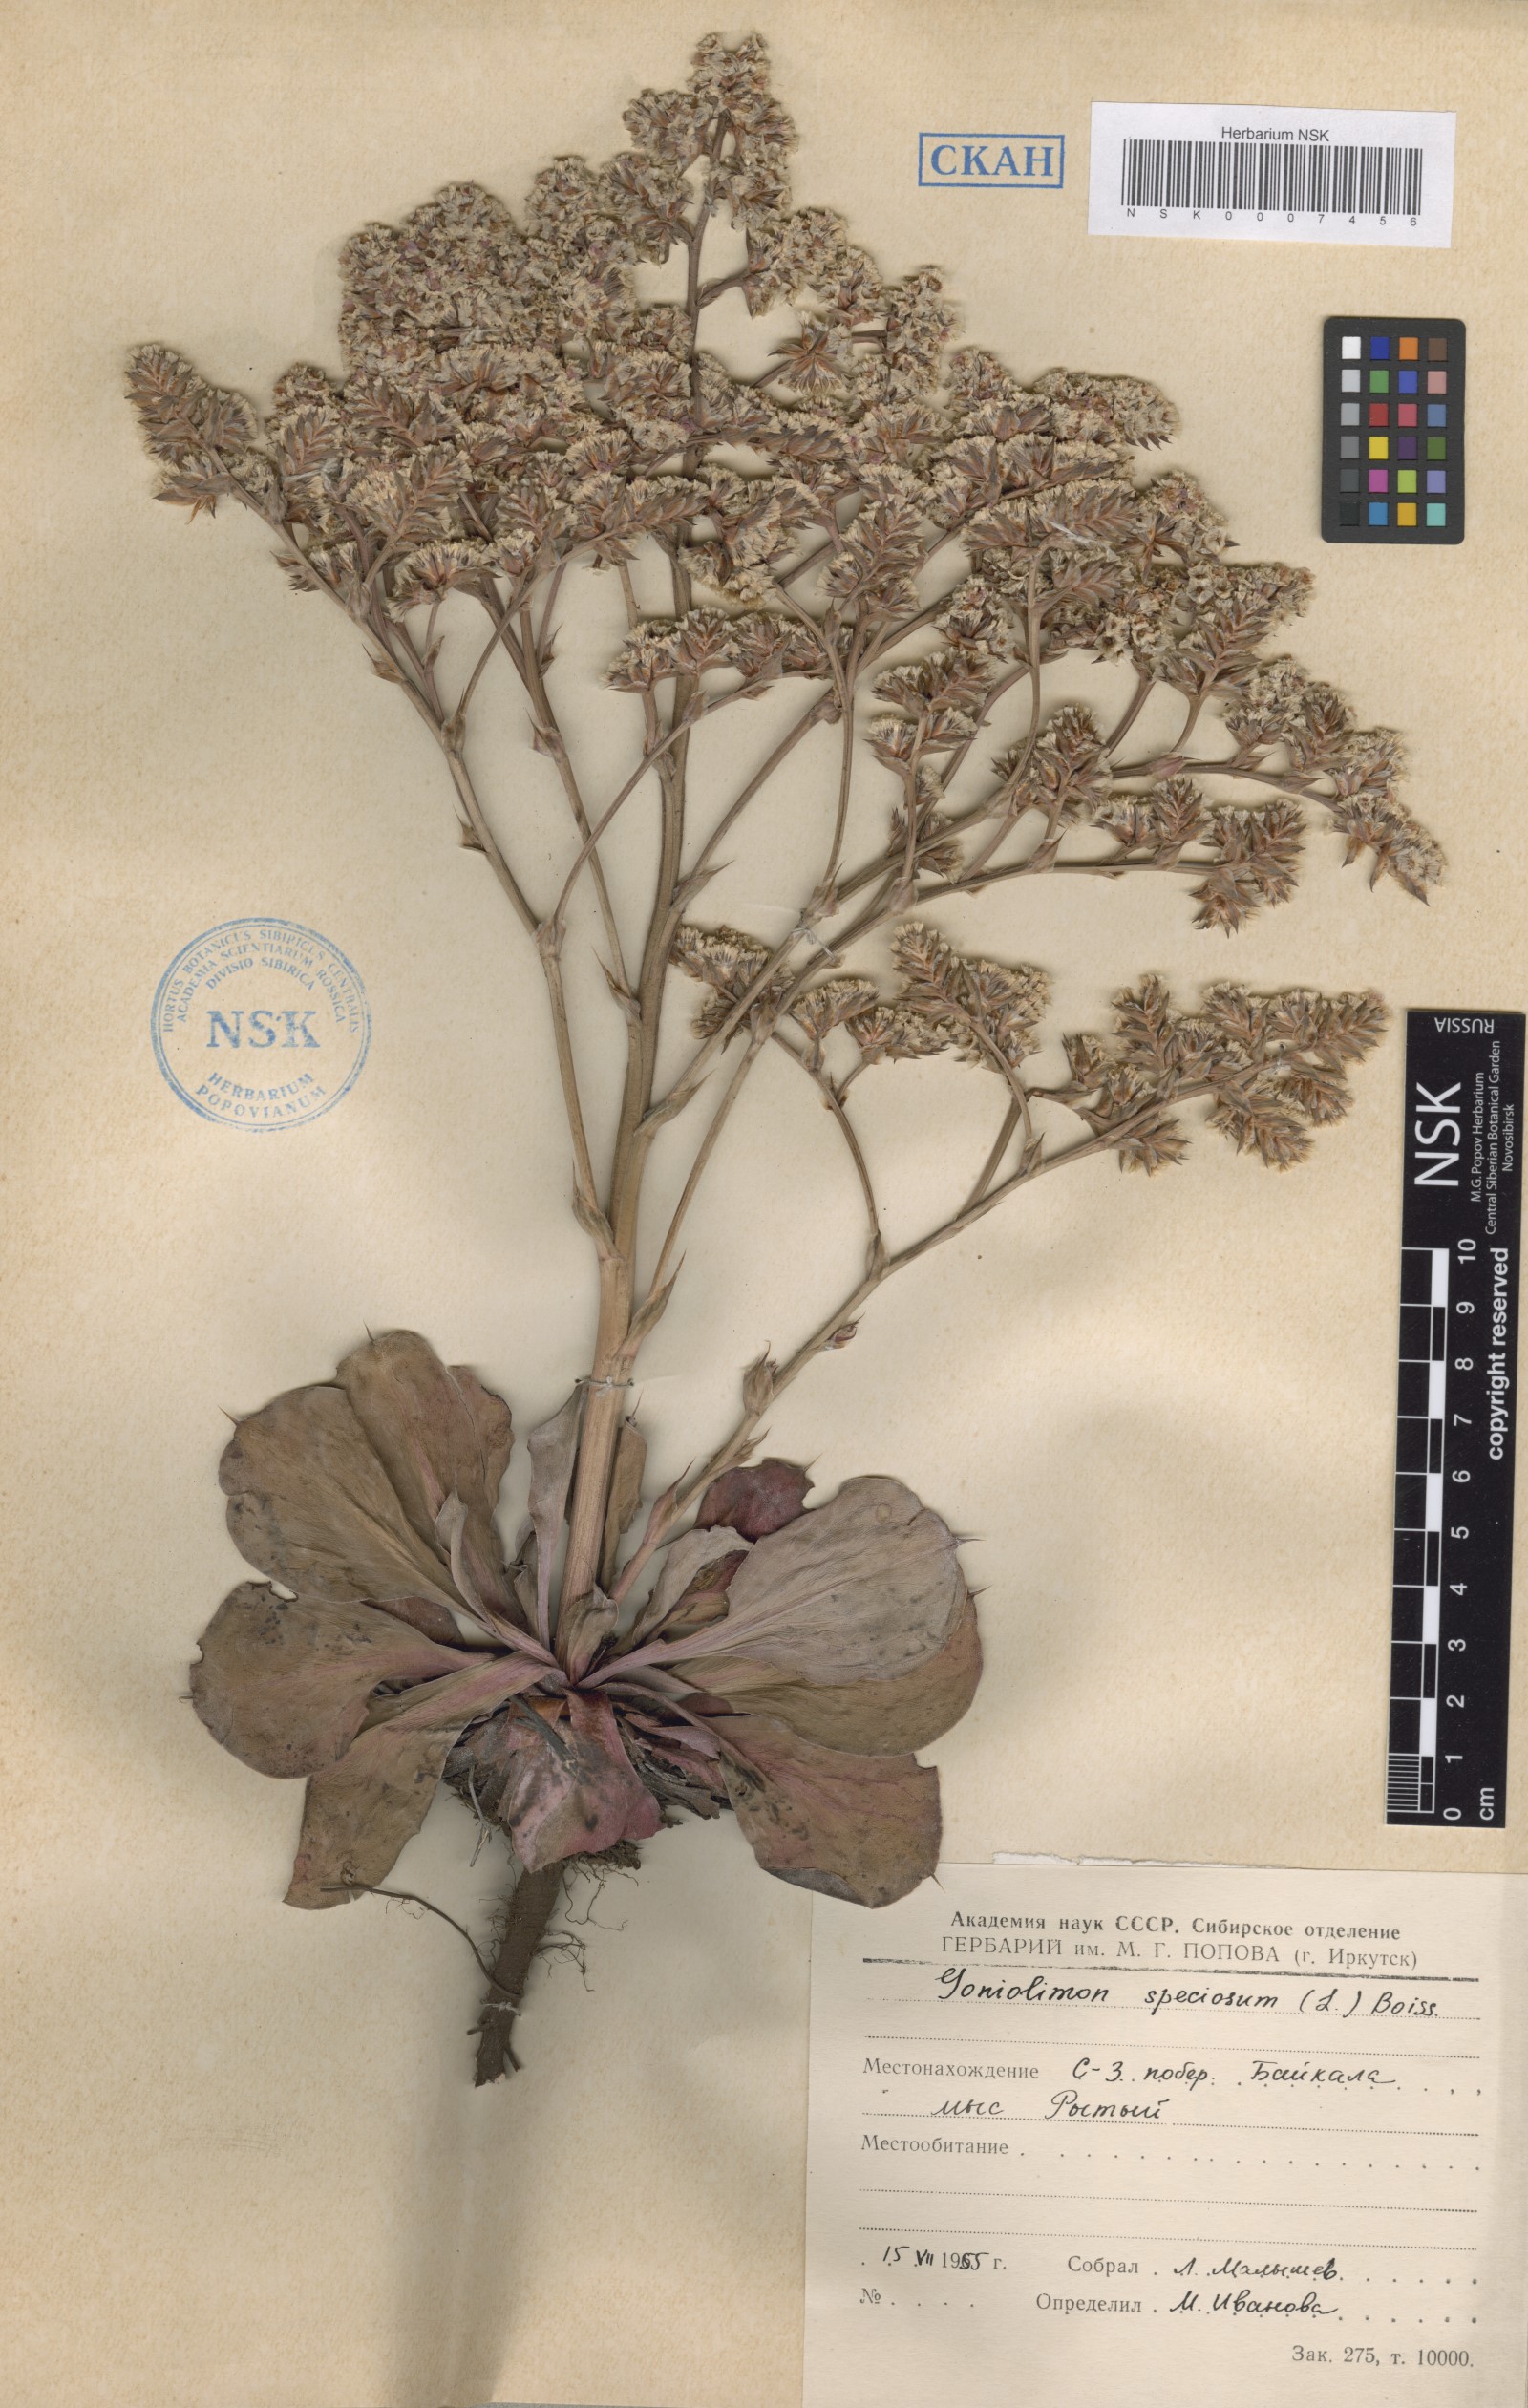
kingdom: Plantae
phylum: Tracheophyta
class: Magnoliopsida
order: Caryophyllales
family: Plumbaginaceae
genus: Goniolimon
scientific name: Goniolimon speciosum
